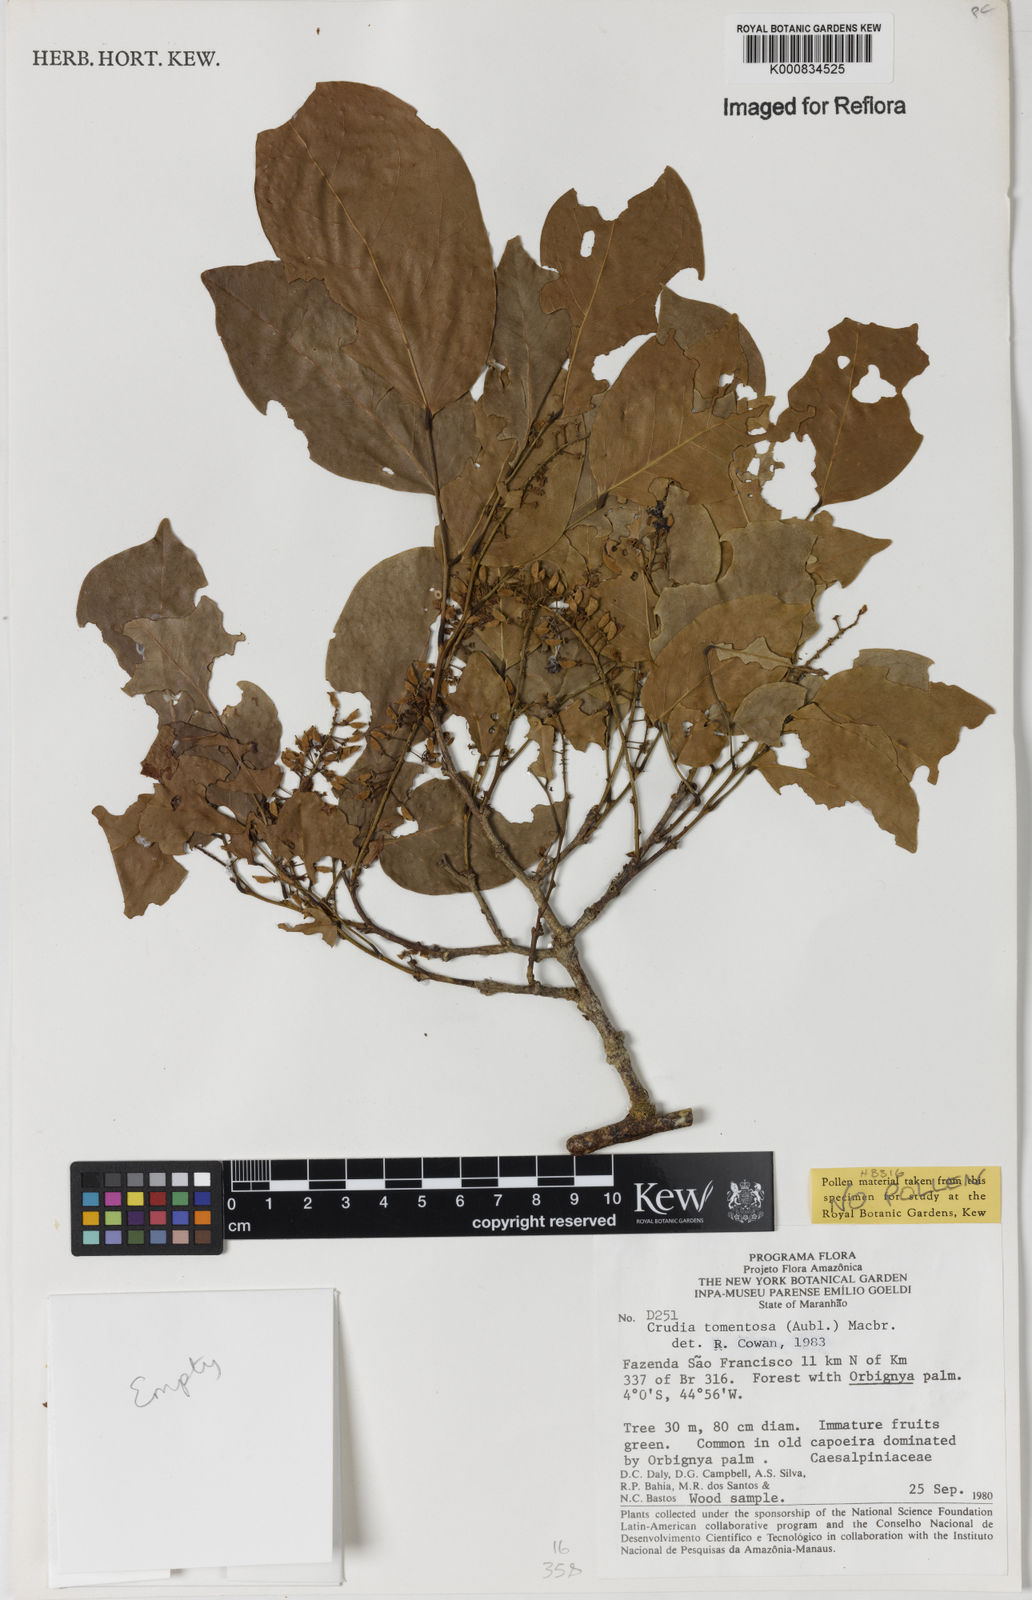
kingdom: Plantae
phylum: Tracheophyta
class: Magnoliopsida
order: Fabales
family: Fabaceae
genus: Crudia
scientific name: Crudia tomentosa
